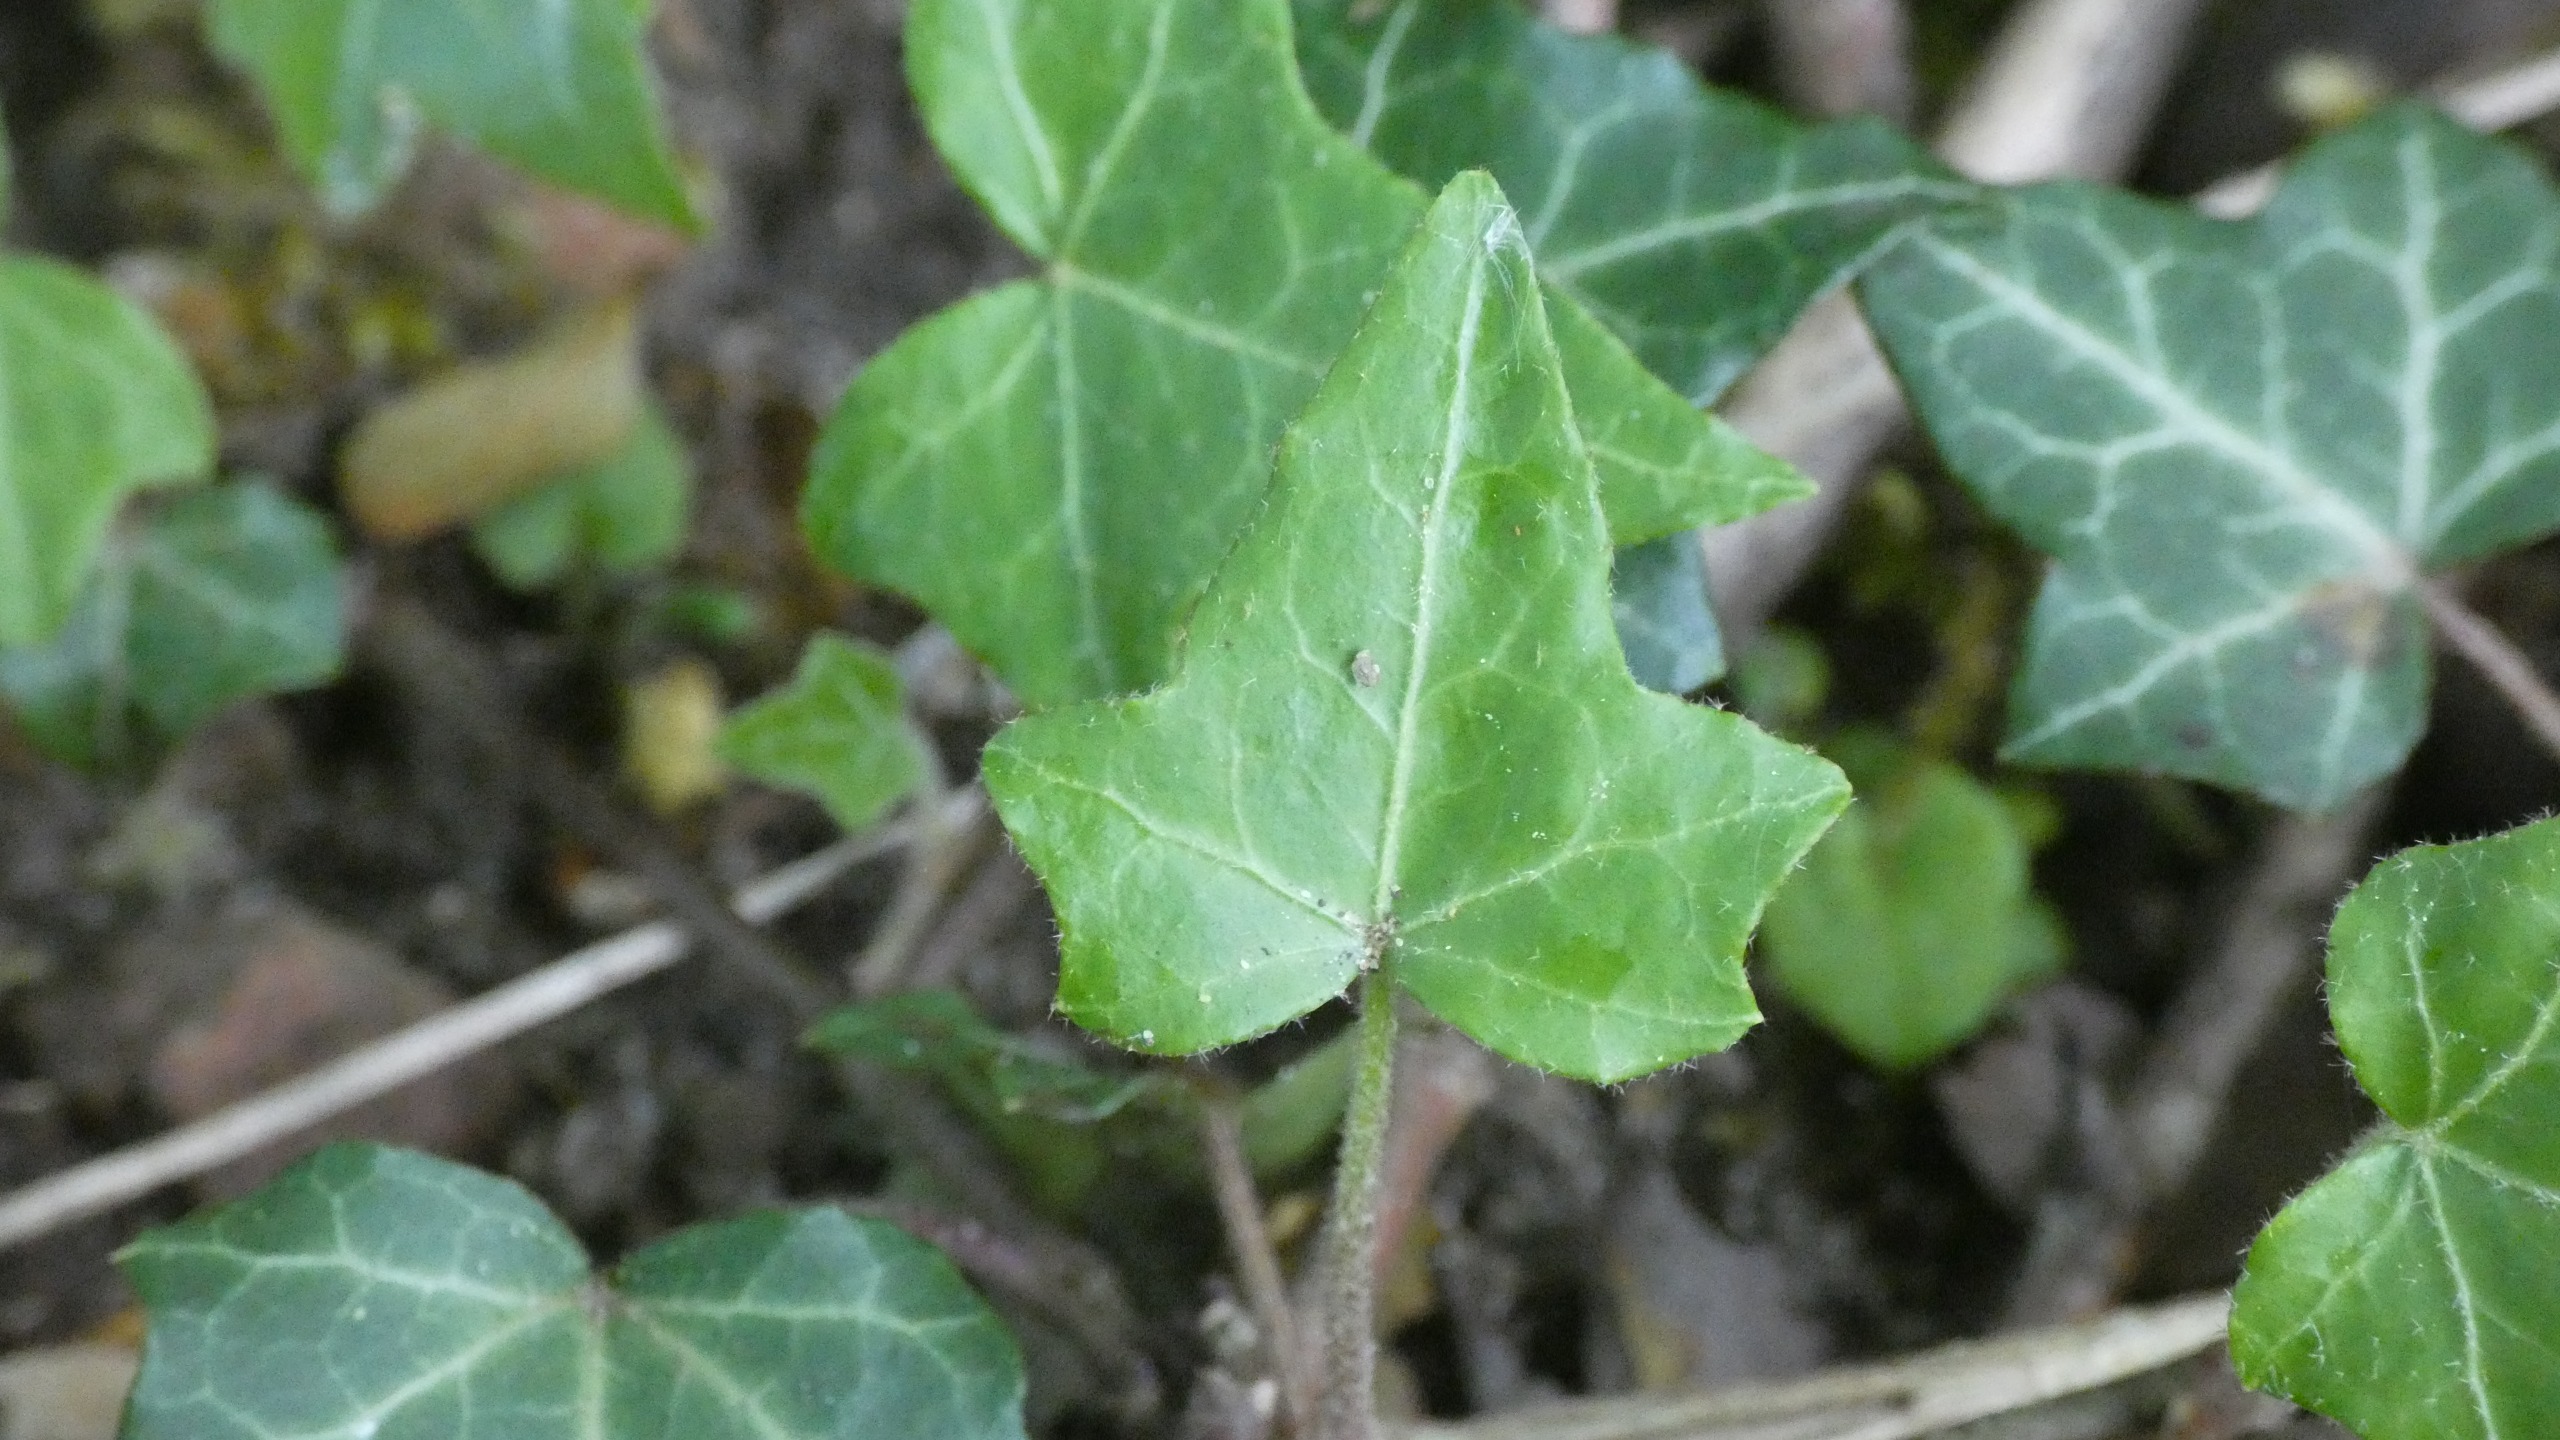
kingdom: Plantae
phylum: Tracheophyta
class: Magnoliopsida
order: Apiales
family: Araliaceae
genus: Hedera
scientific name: Hedera helix
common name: Vedbend
